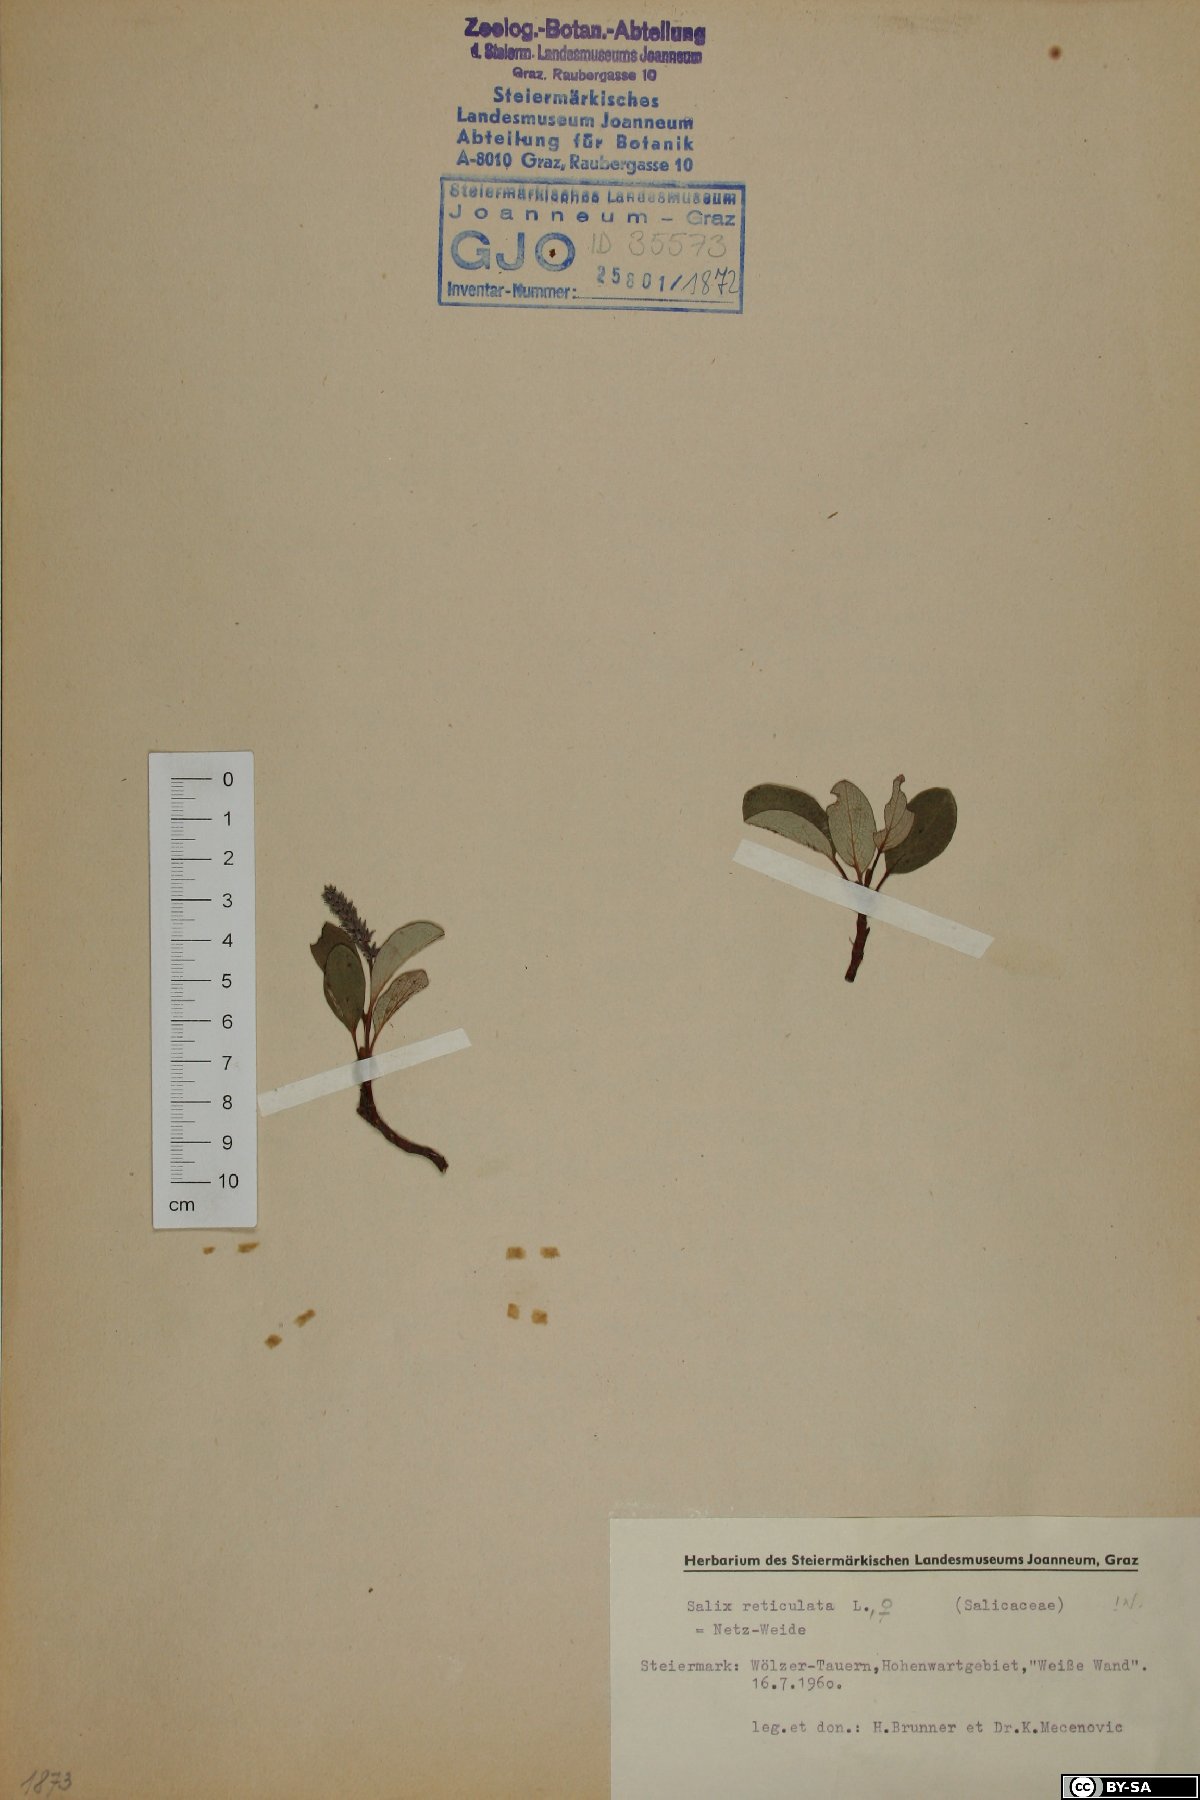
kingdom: Plantae
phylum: Tracheophyta
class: Magnoliopsida
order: Malpighiales
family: Salicaceae
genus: Salix
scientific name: Salix reticulata
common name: Net-leaved willow
